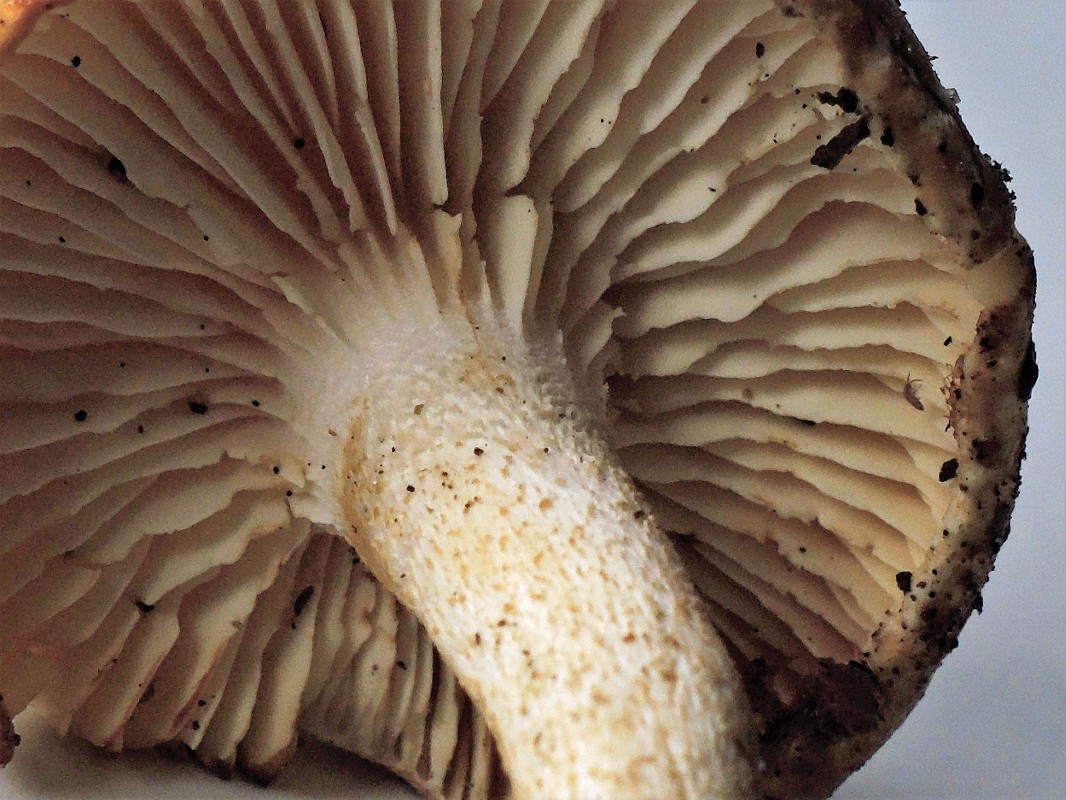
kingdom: Fungi
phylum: Basidiomycota
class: Agaricomycetes
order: Agaricales
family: Hygrophoraceae
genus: Hygrophorus
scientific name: Hygrophorus discoxanthus
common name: ildelugtende sneglehat
